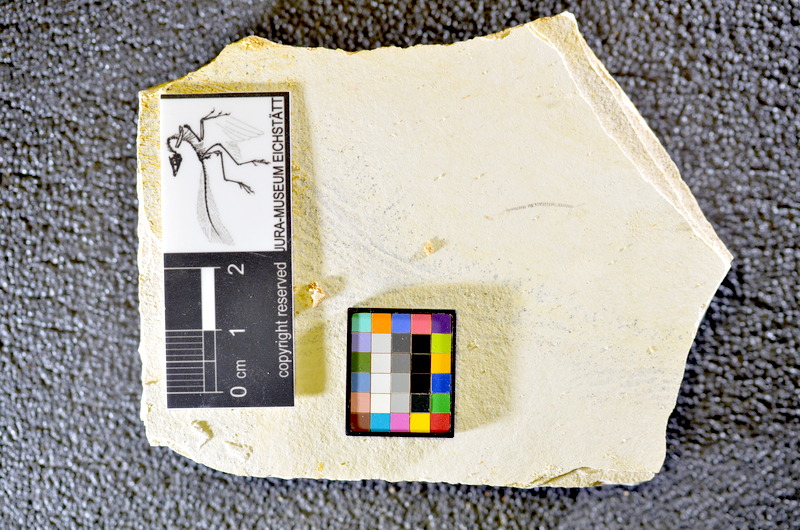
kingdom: Animalia
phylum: Chordata
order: Salmoniformes
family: Orthogonikleithridae
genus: Orthogonikleithrus
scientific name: Orthogonikleithrus hoelli
